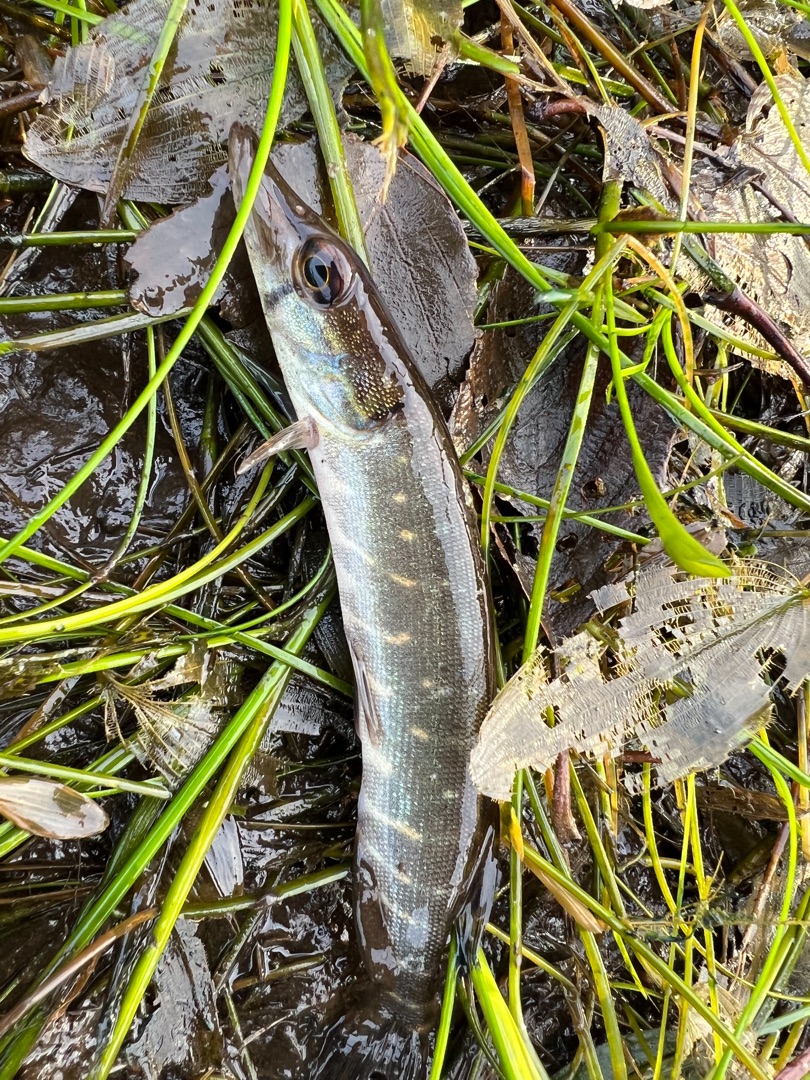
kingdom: Animalia
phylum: Chordata
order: Esociformes
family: Esocidae
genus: Esox
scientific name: Esox lucius
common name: Gedde
